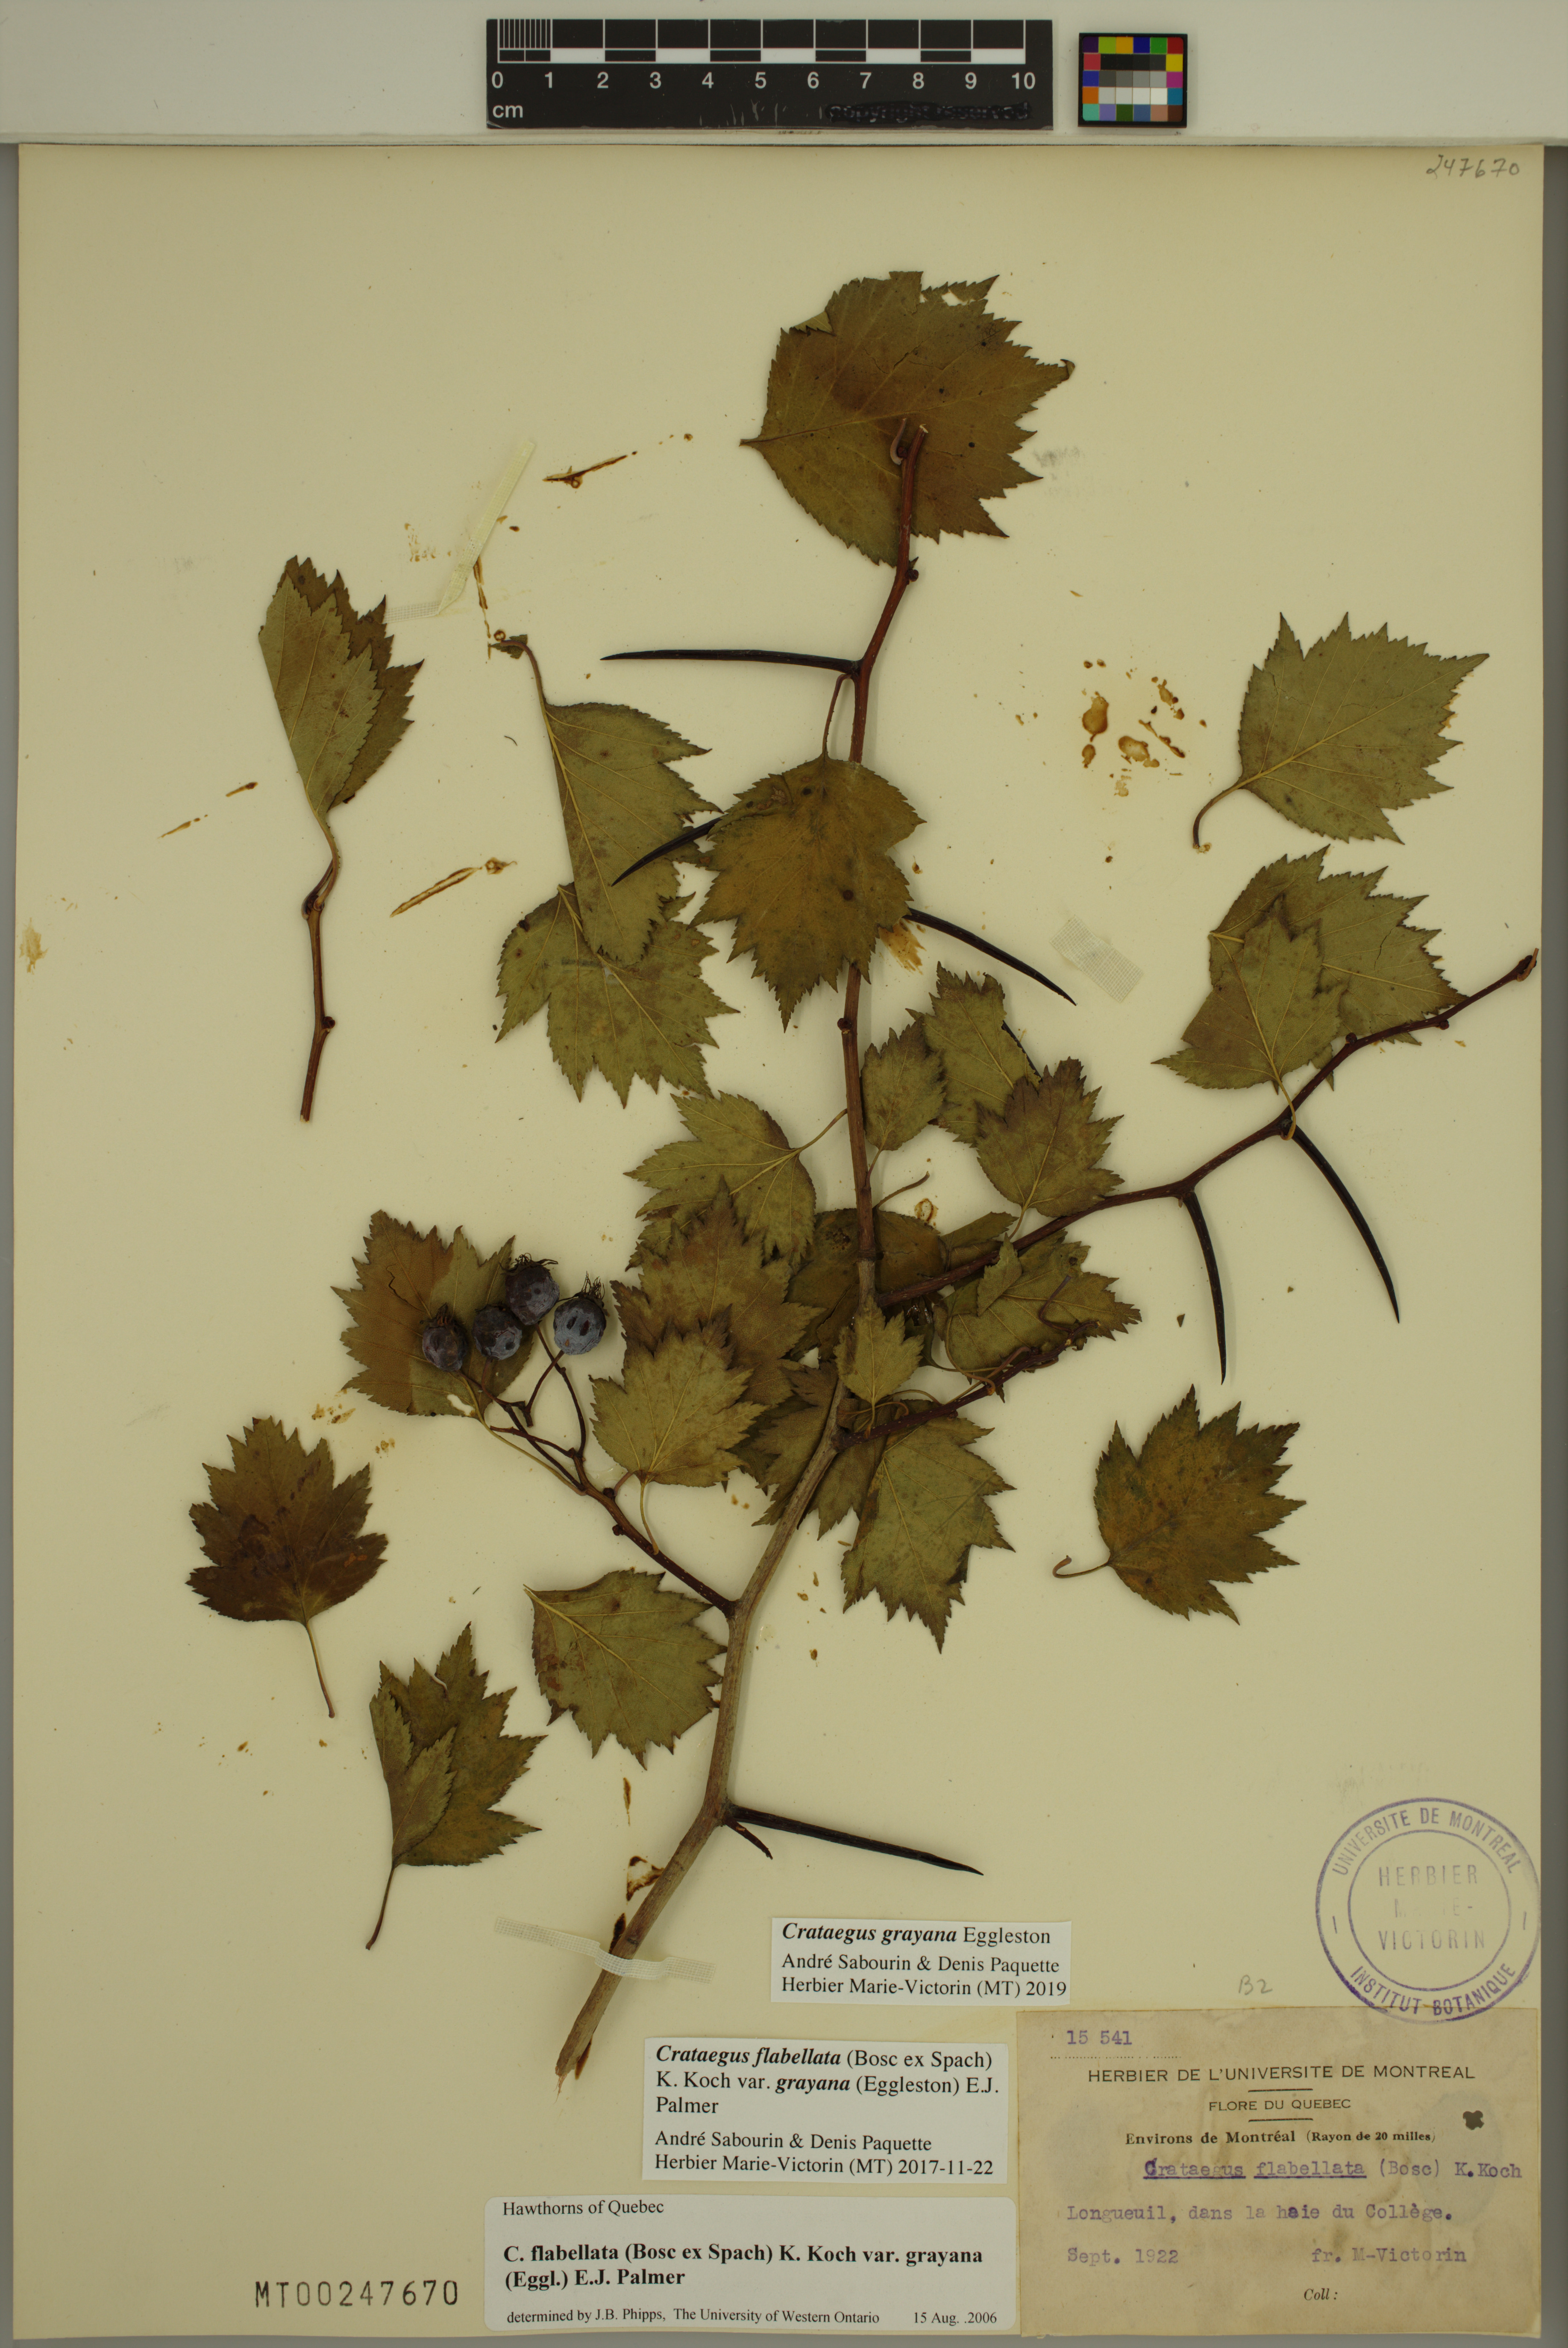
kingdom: Plantae
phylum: Tracheophyta
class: Magnoliopsida
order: Rosales
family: Rosaceae
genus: Crataegus
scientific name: Crataegus schuettei
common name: Schuette's hawthorn
